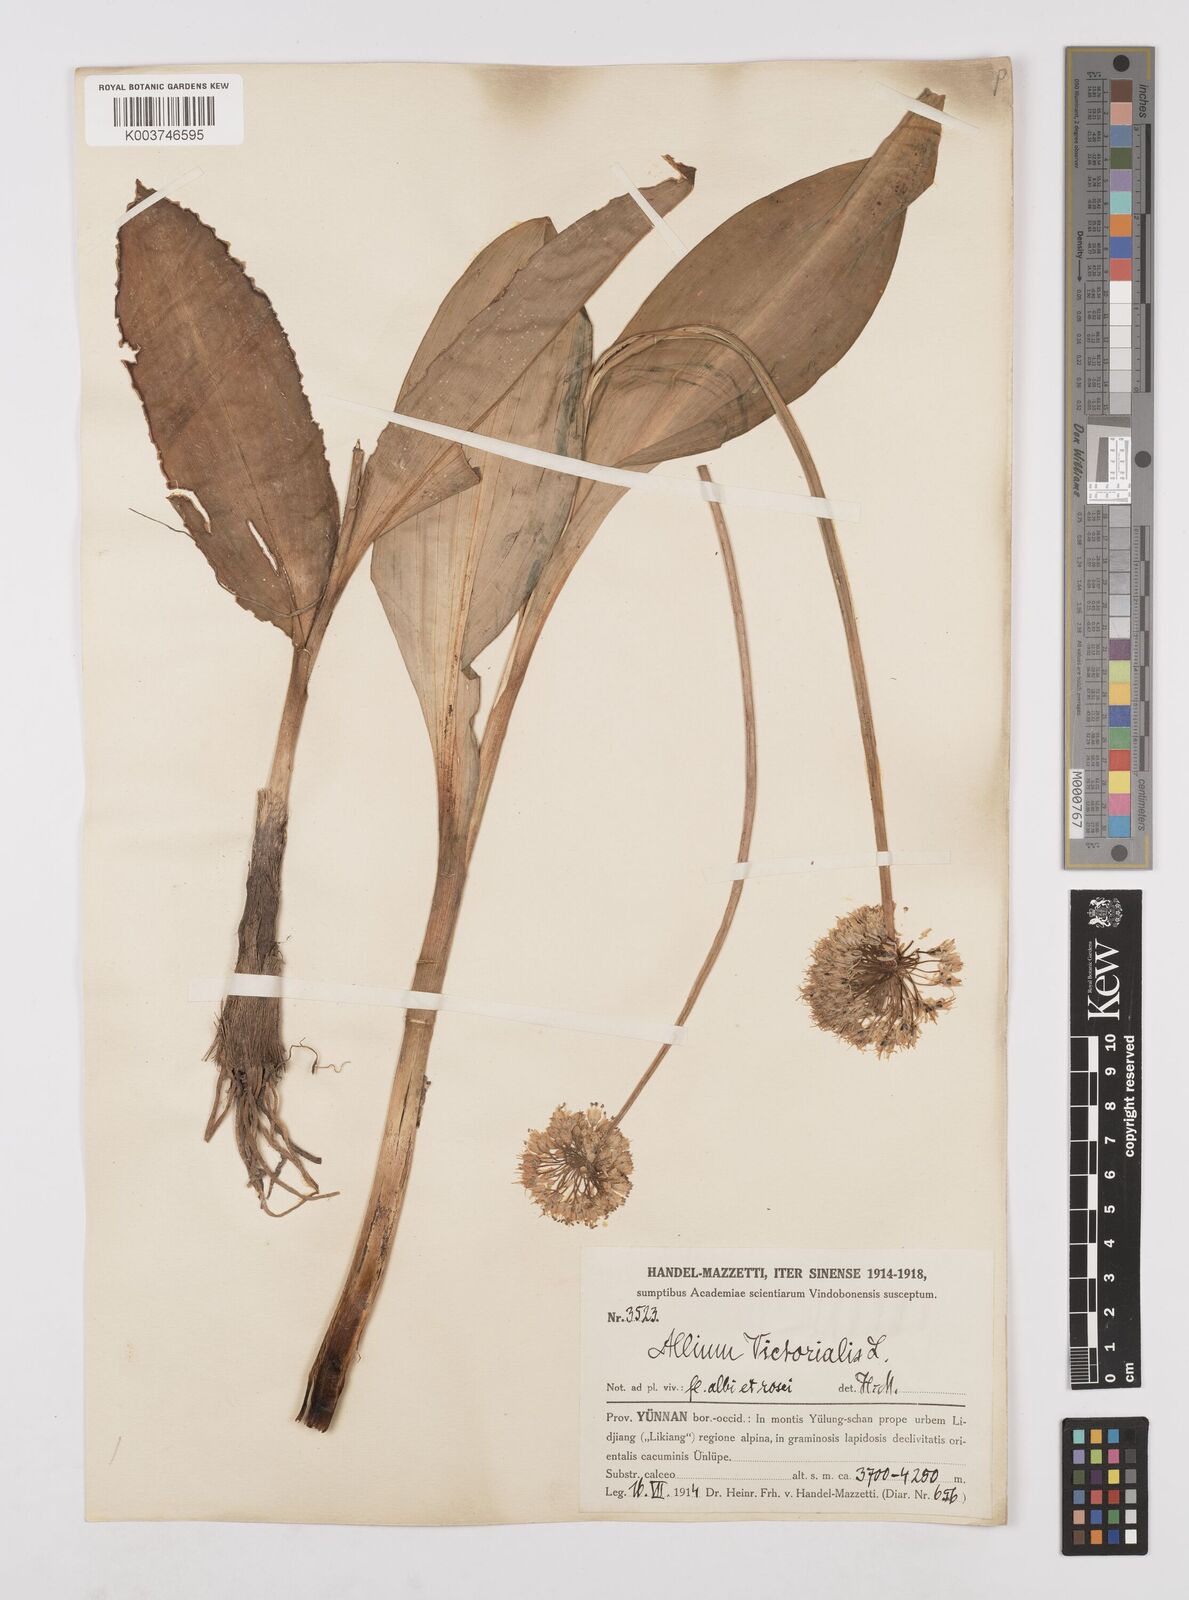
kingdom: Plantae
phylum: Tracheophyta
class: Liliopsida
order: Asparagales
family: Amaryllidaceae
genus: Allium
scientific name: Allium victorialis
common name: Alpine leek
